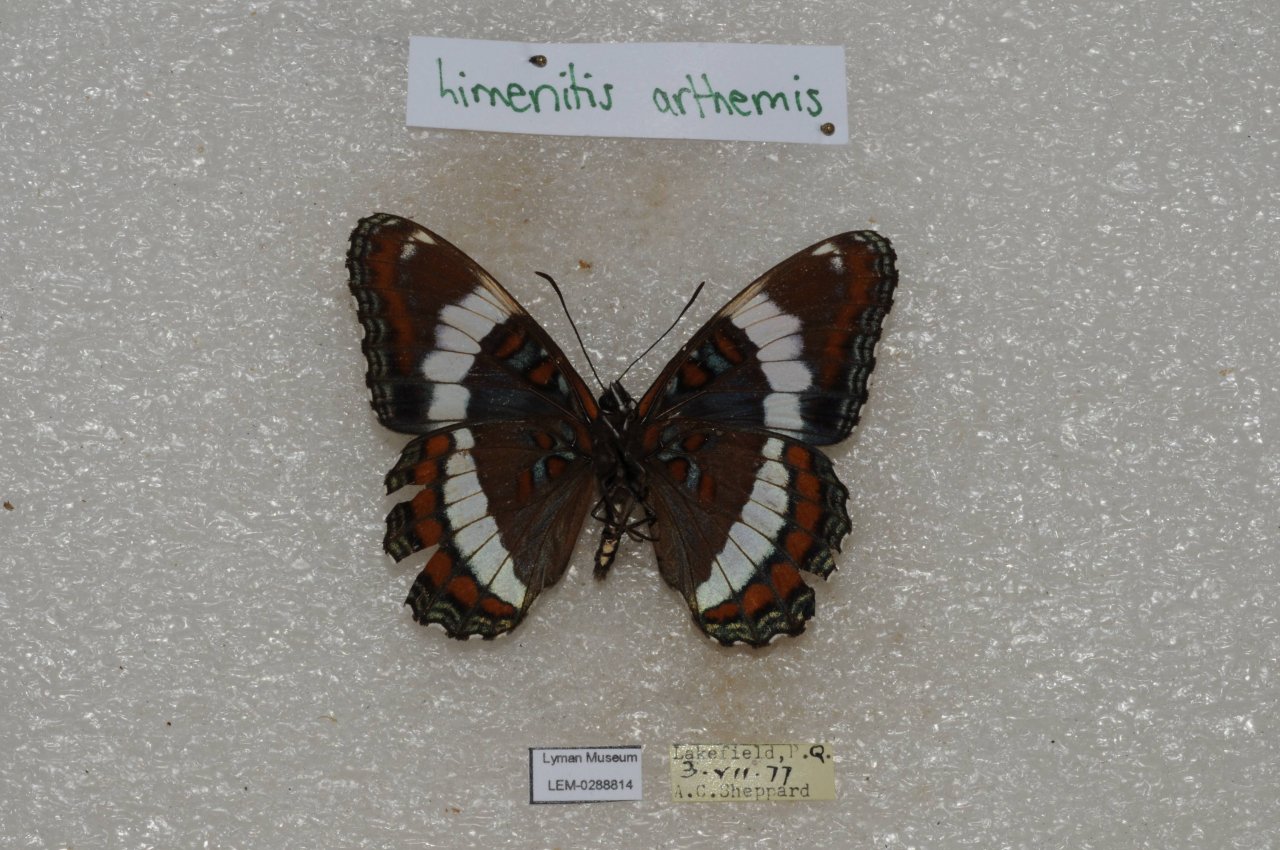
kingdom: Animalia
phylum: Arthropoda
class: Insecta
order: Lepidoptera
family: Nymphalidae
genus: Limenitis
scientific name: Limenitis arthemis
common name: Red-spotted Admiral
